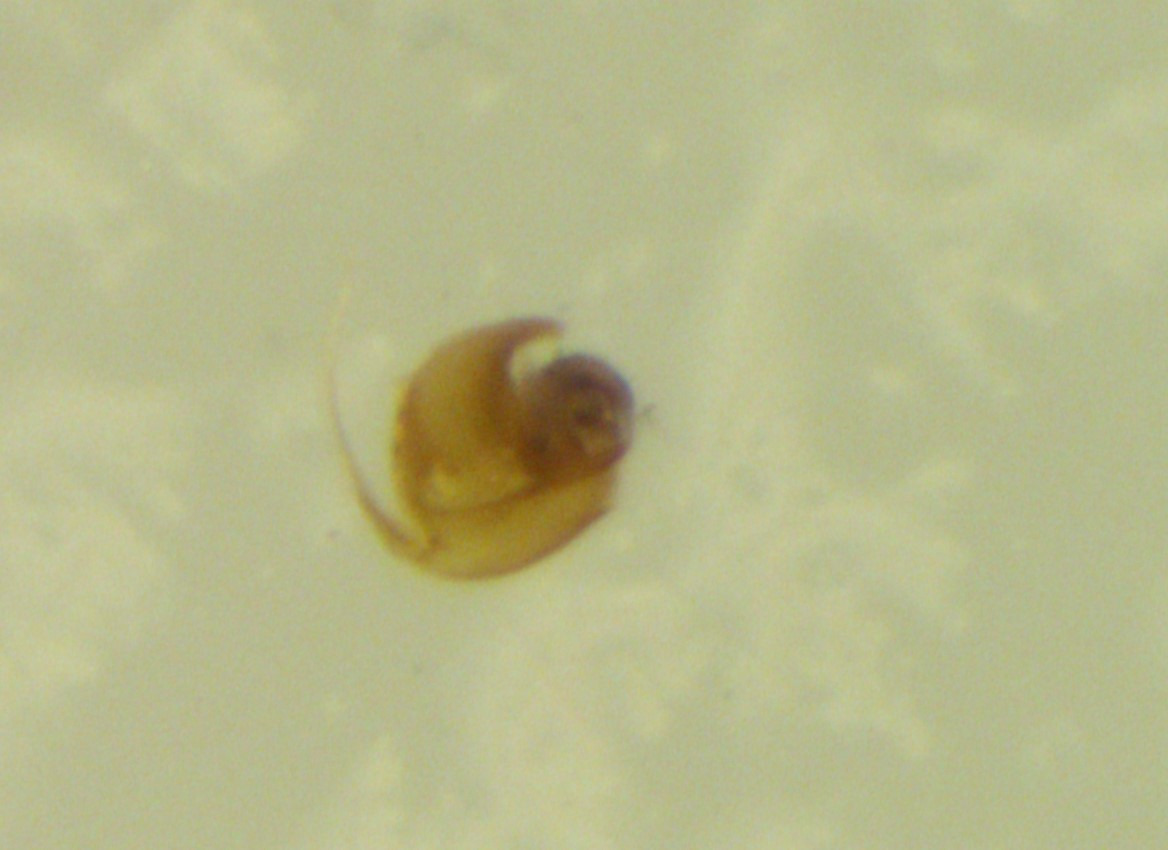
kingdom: Animalia
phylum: Arthropoda
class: Insecta
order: Hemiptera
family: Anthocoridae
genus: Orius
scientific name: Orius vicinus
